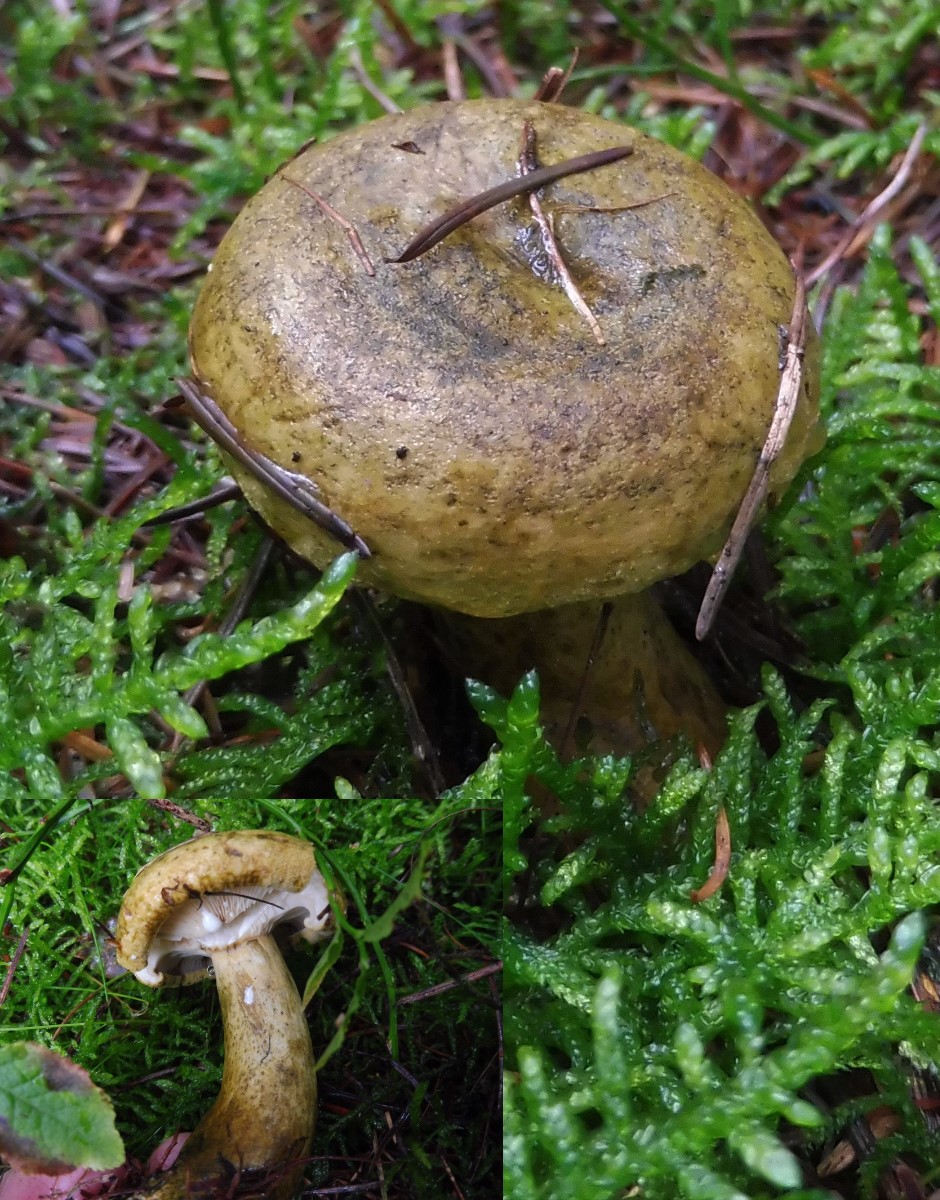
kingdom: Fungi
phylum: Basidiomycota
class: Agaricomycetes
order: Russulales
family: Russulaceae
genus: Lactarius
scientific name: Lactarius necator
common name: manddraber-mælkehat
